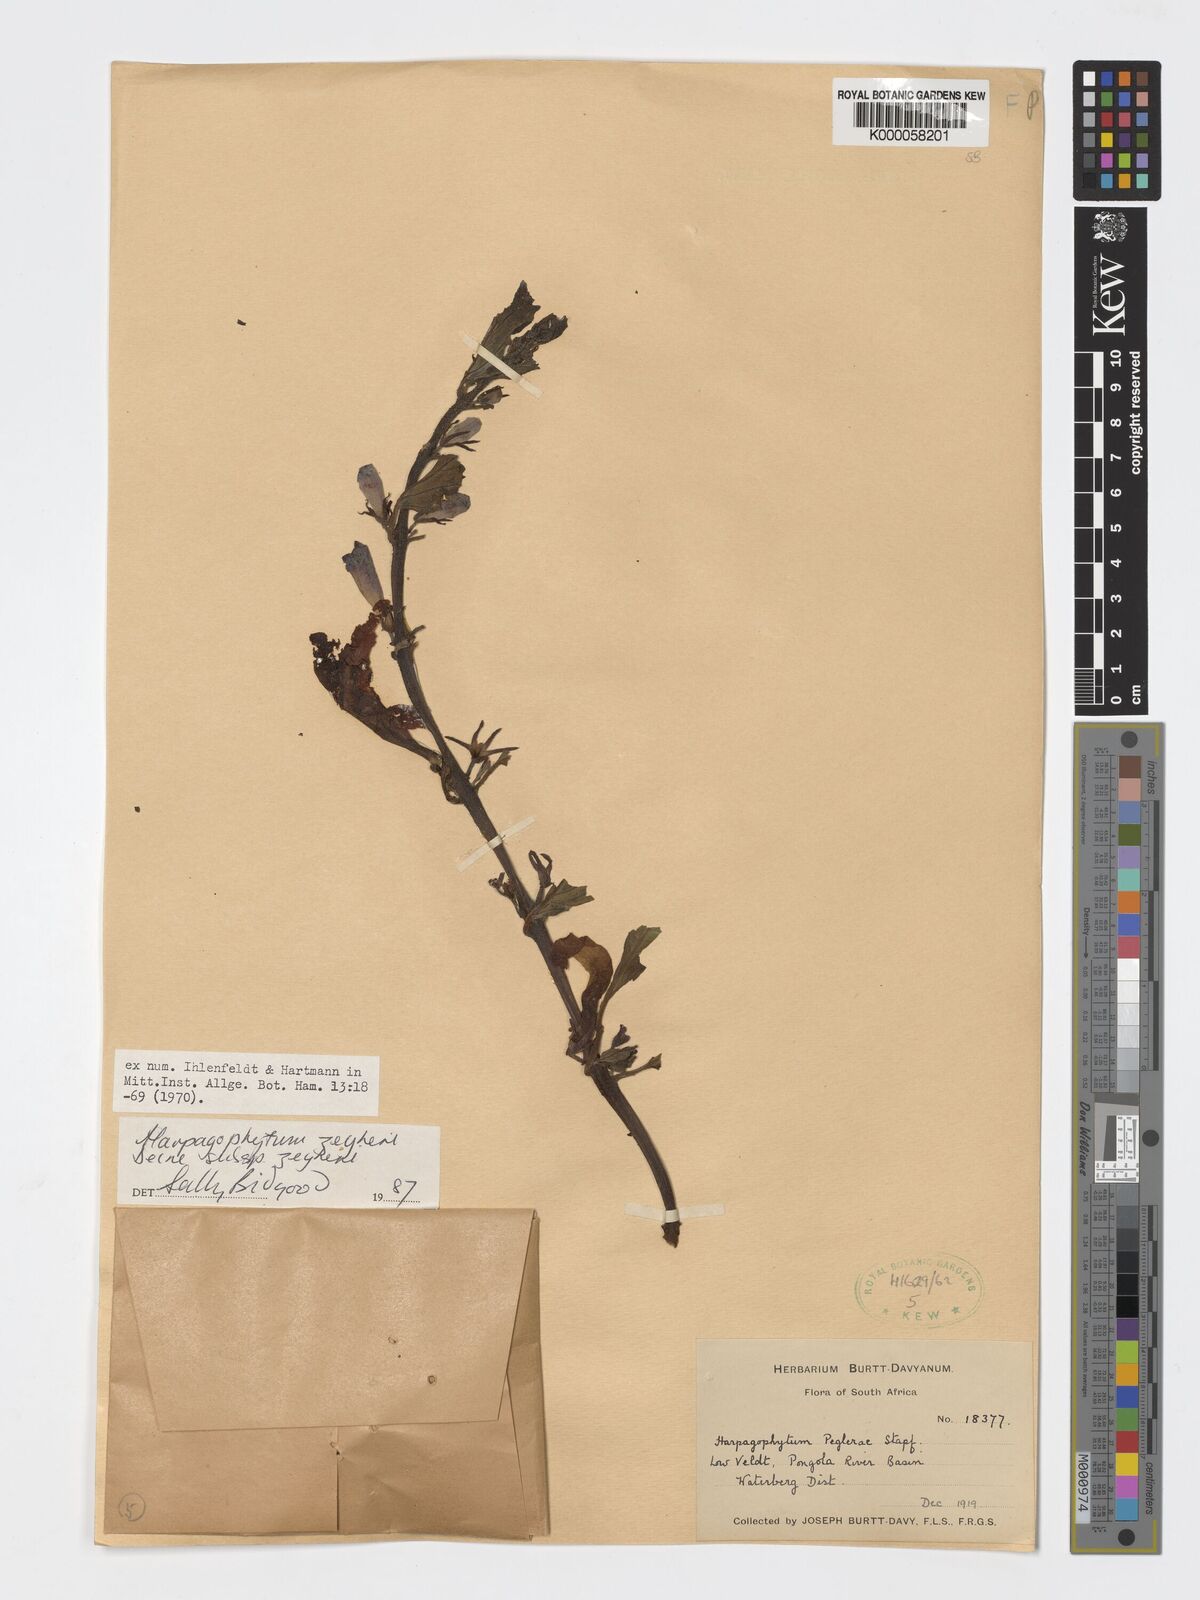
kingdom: Plantae
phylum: Tracheophyta
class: Magnoliopsida
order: Lamiales
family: Pedaliaceae
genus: Harpagophytum
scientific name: Harpagophytum zeyheri
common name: Grappleplant
